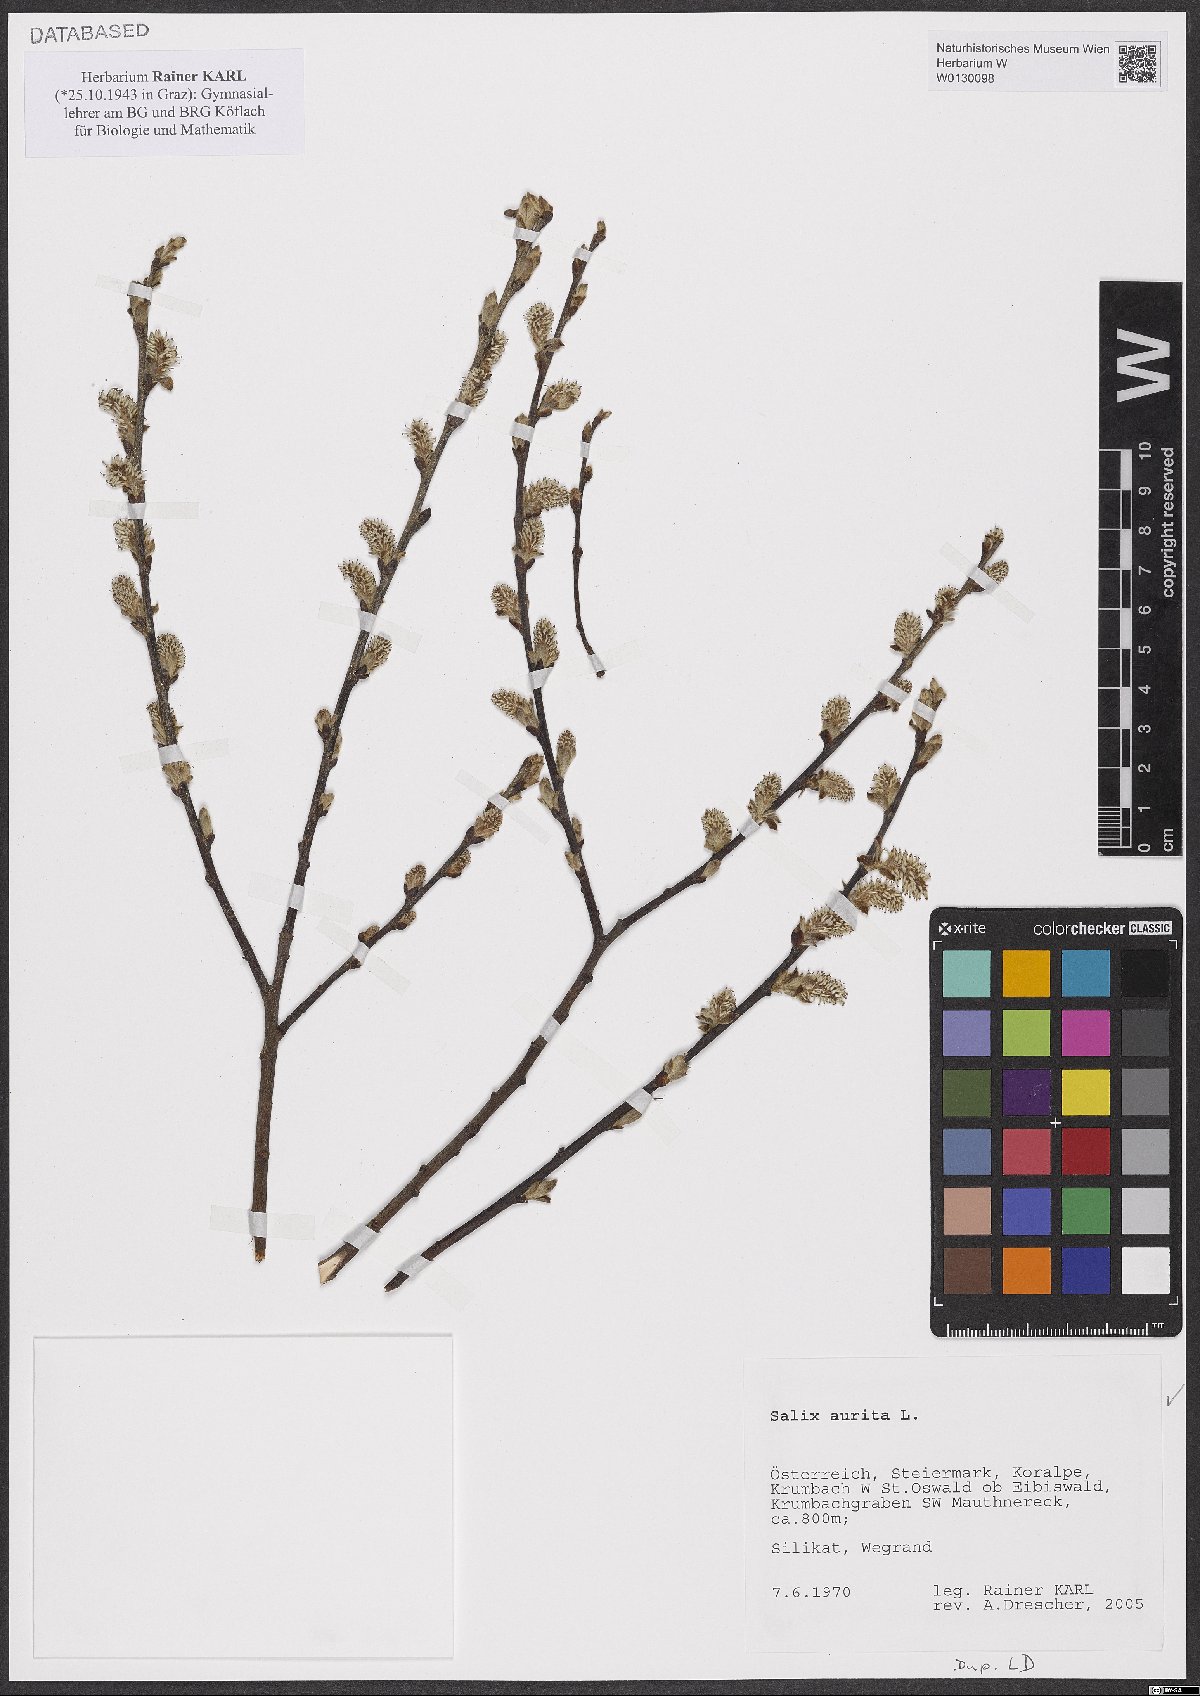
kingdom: Plantae
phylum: Tracheophyta
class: Magnoliopsida
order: Malpighiales
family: Salicaceae
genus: Salix
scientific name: Salix aurita
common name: Eared willow
